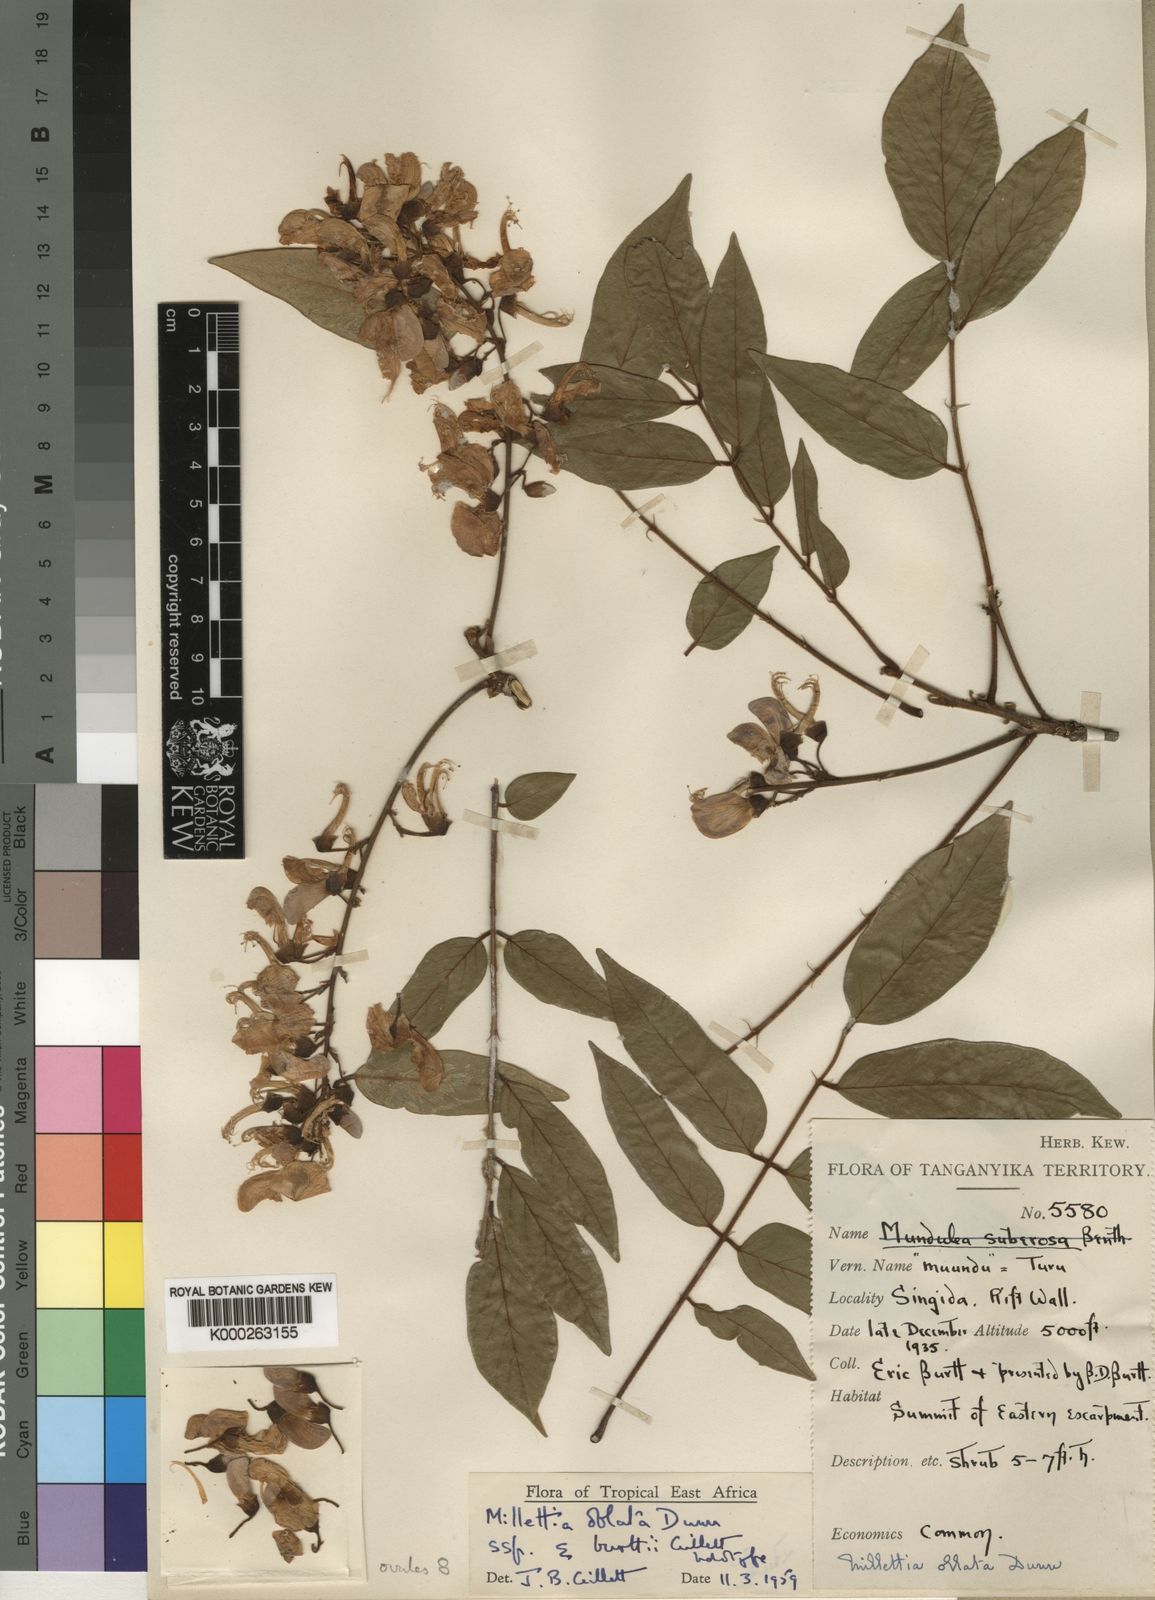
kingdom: Plantae
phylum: Tracheophyta
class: Magnoliopsida
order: Fabales
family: Fabaceae
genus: Millettia
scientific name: Millettia oblata
